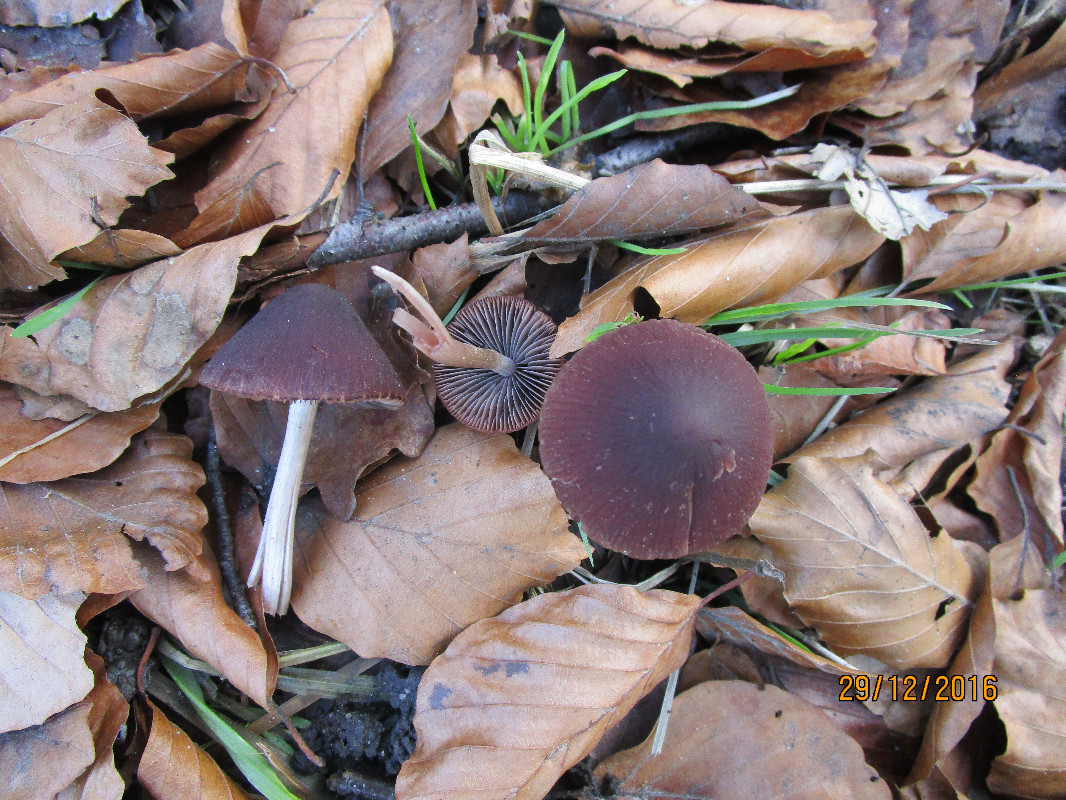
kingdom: Fungi
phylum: Basidiomycota
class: Agaricomycetes
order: Agaricales
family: Psathyrellaceae
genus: Psathyrella
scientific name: Psathyrella bipellis
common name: vinrød mørkhat
